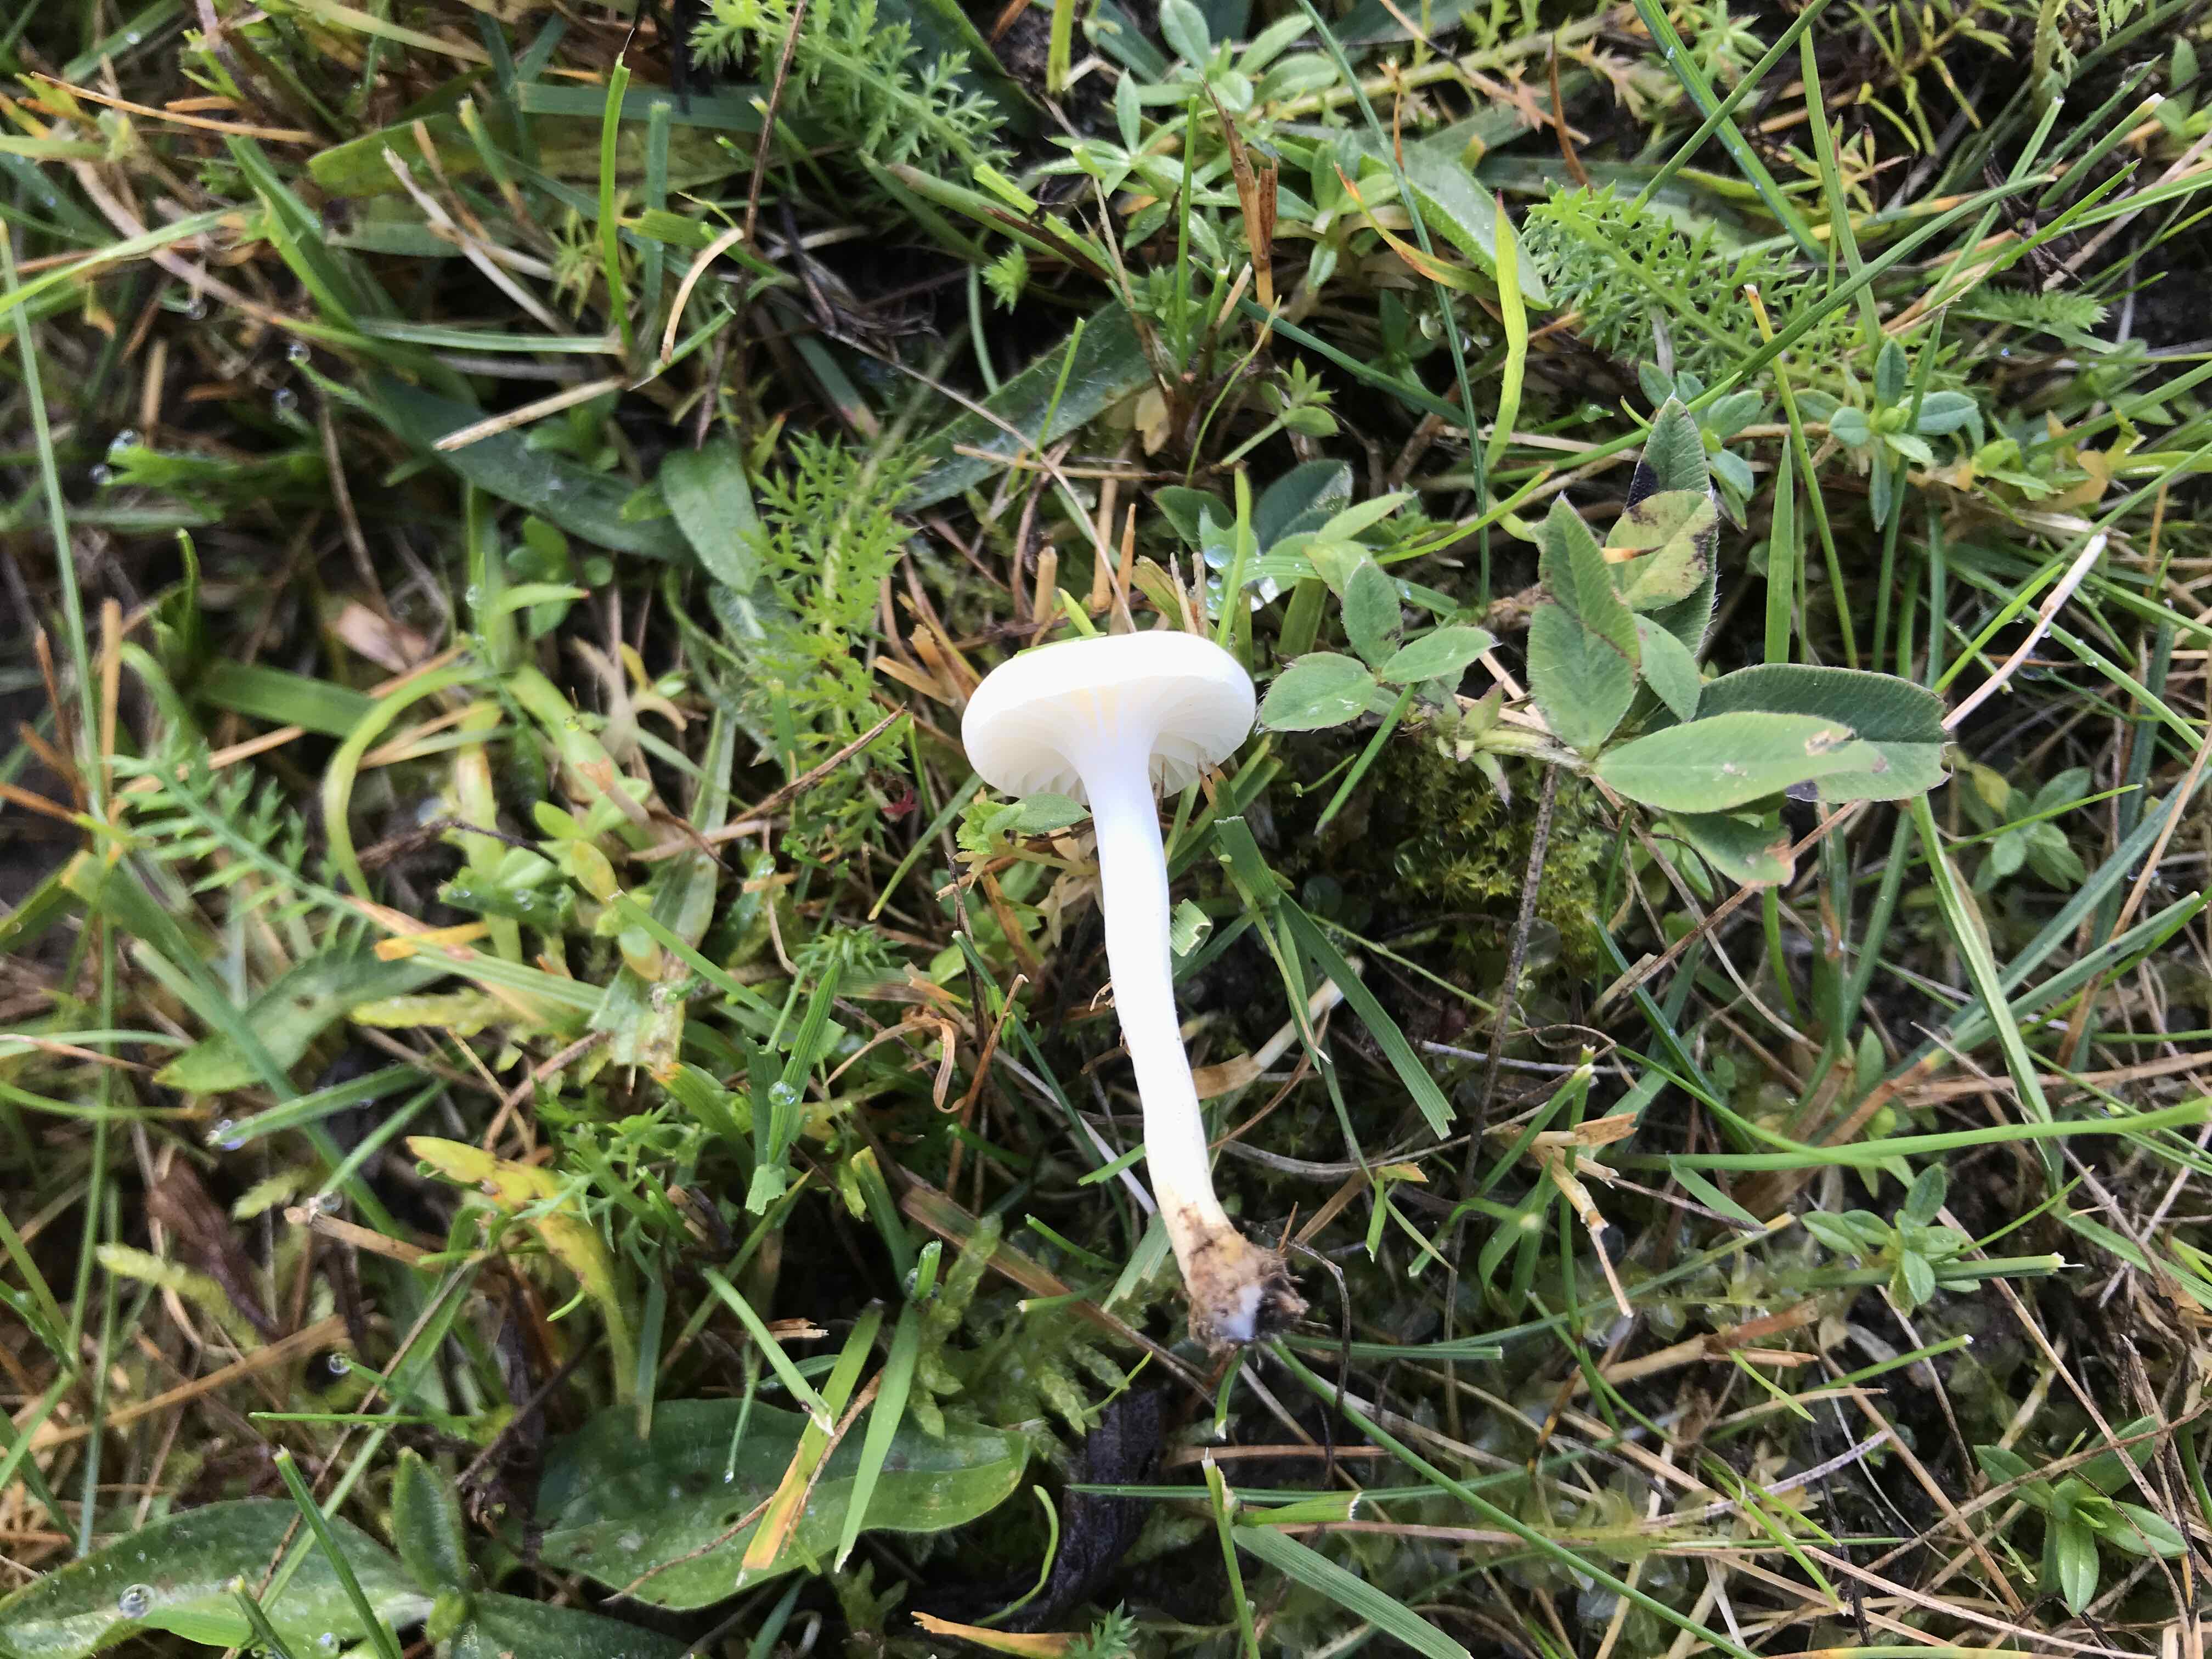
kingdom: Fungi
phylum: Basidiomycota
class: Agaricomycetes
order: Agaricales
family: Hygrophoraceae
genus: Cuphophyllus
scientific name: Cuphophyllus virgineus
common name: snehvid vokshat
